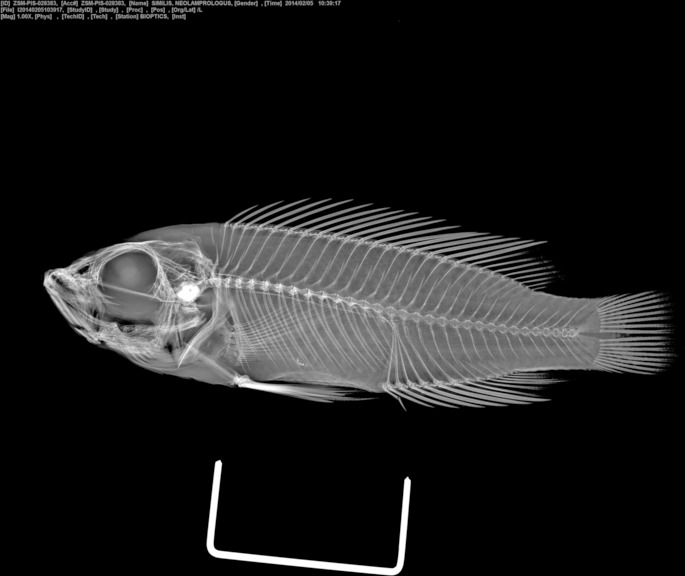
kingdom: Animalia
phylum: Chordata
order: Perciformes
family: Cichlidae
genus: Neolamprologus
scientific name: Neolamprologus similis
